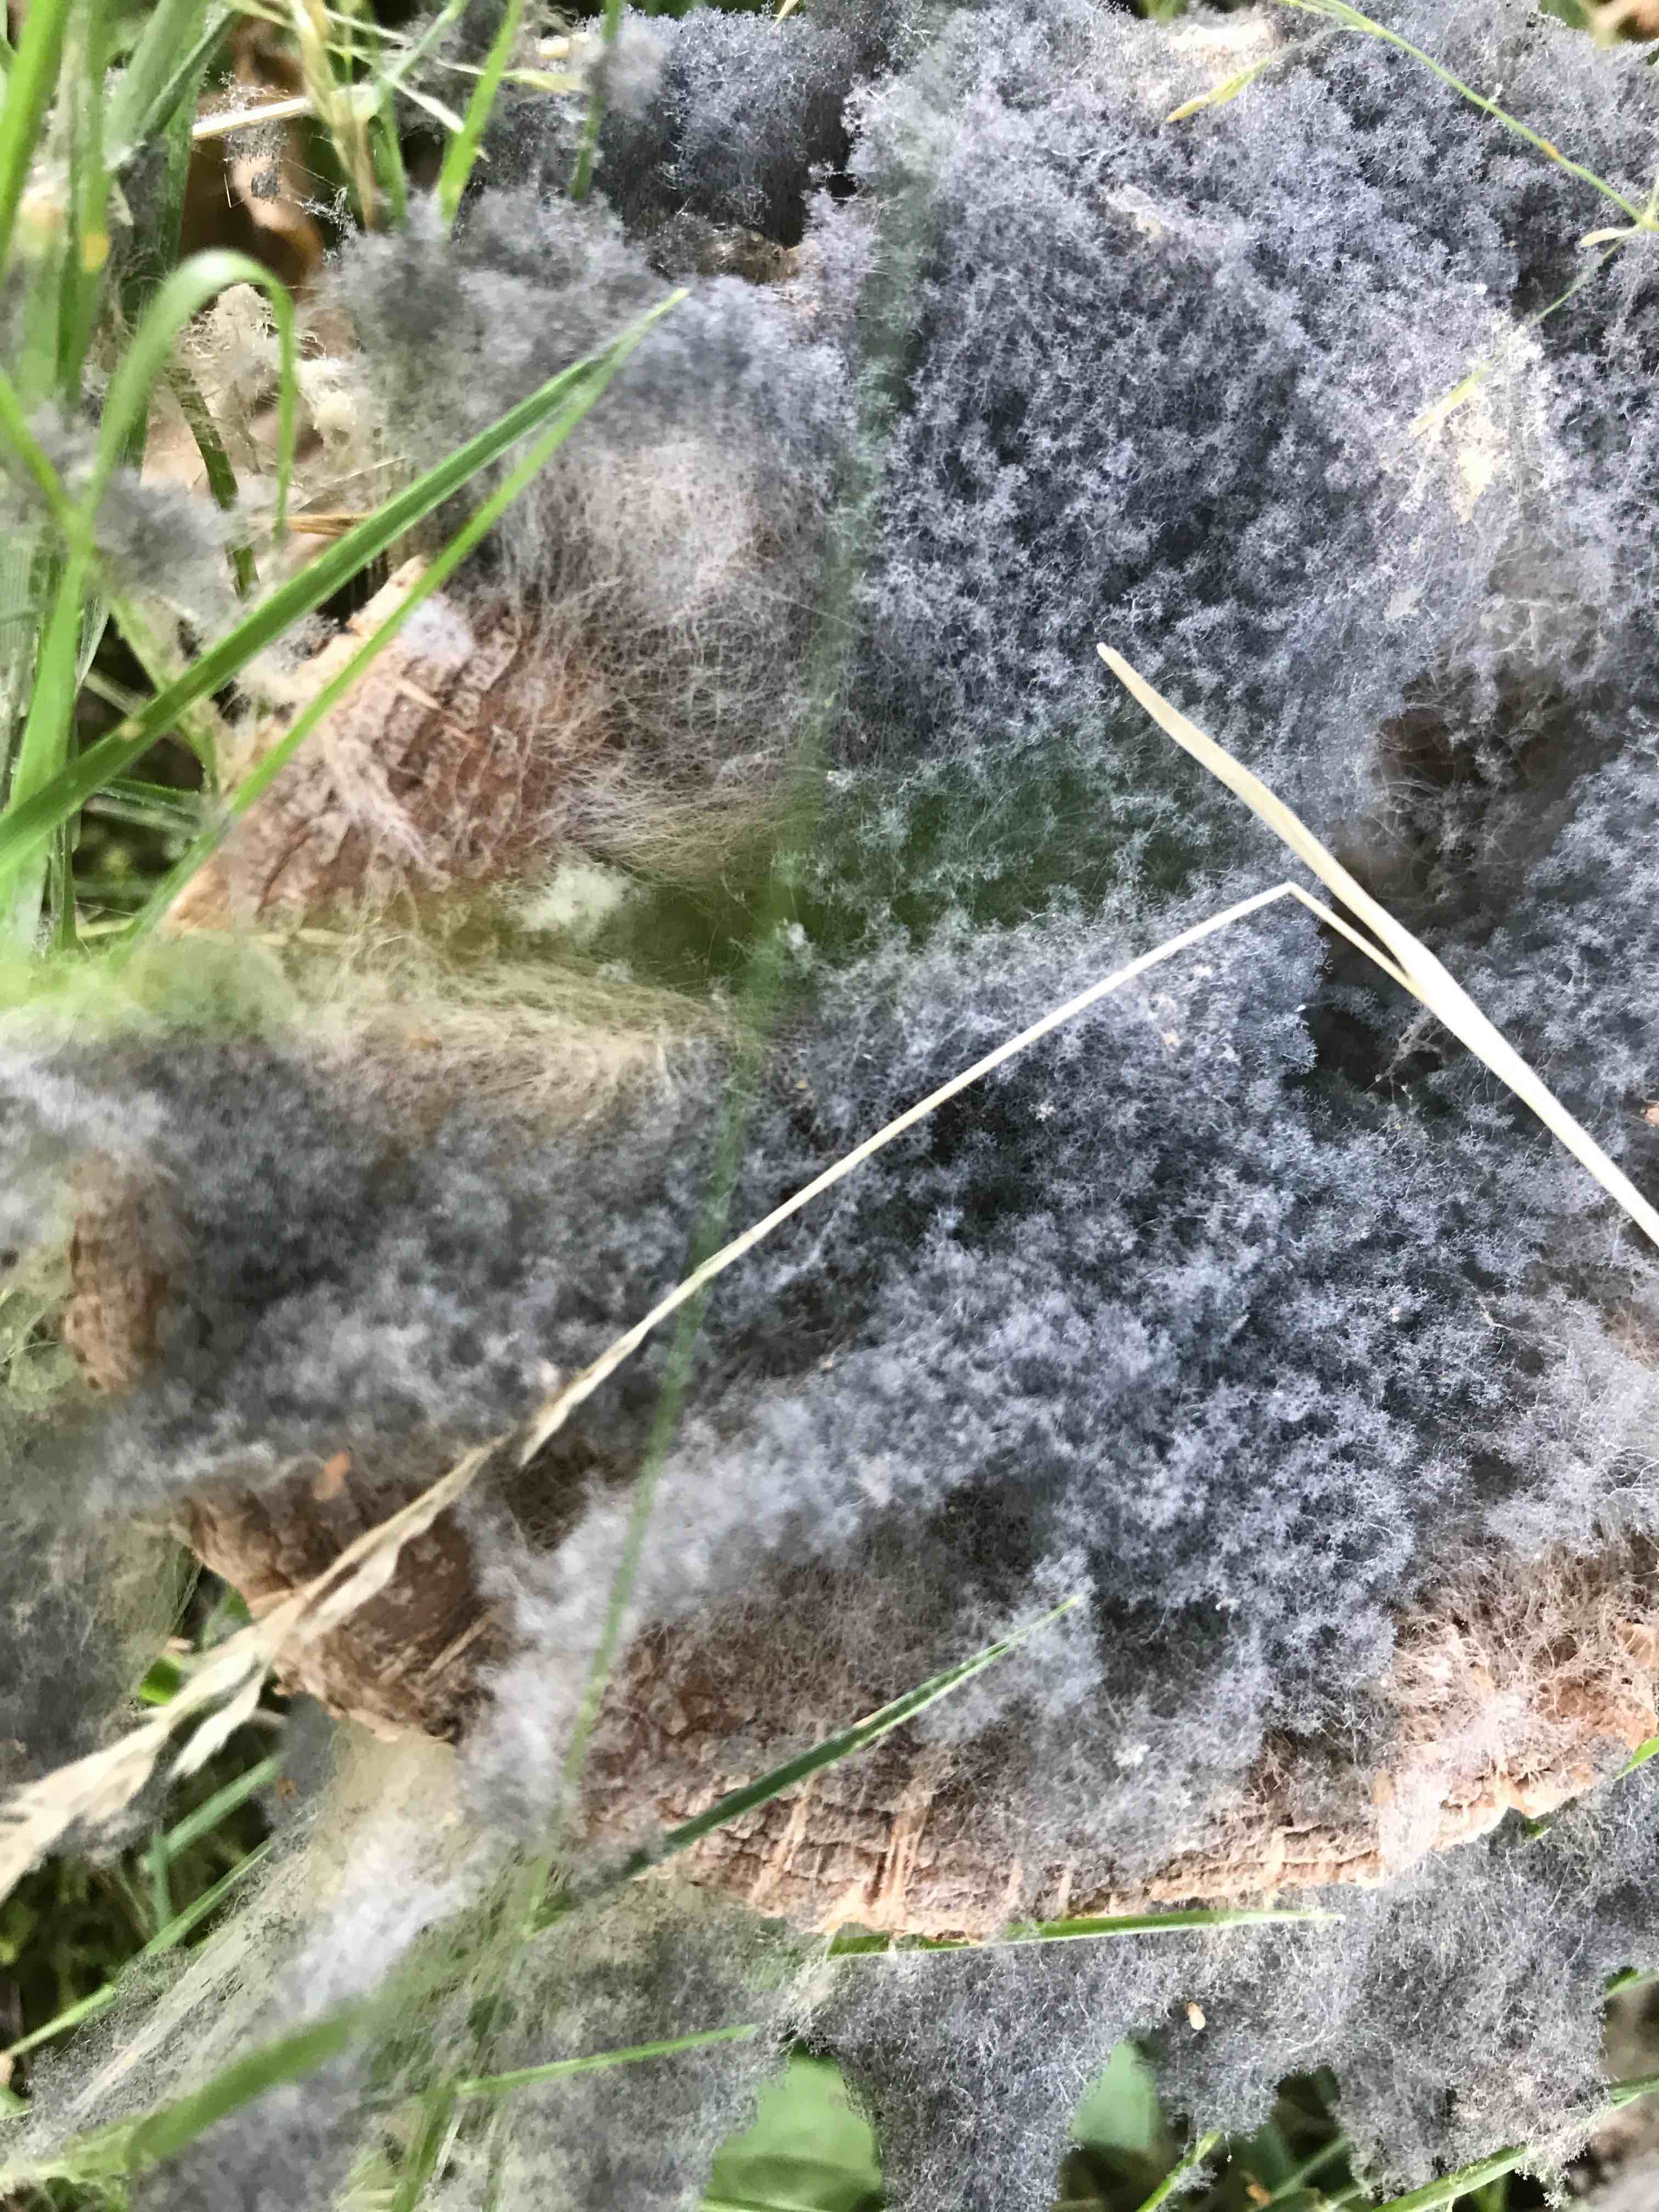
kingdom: Fungi
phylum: Mucoromycota
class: Mucoromycetes
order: Mucorales
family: Rhizopodaceae
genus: Syzygites
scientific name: Syzygites megalocarpus
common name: nissenål
